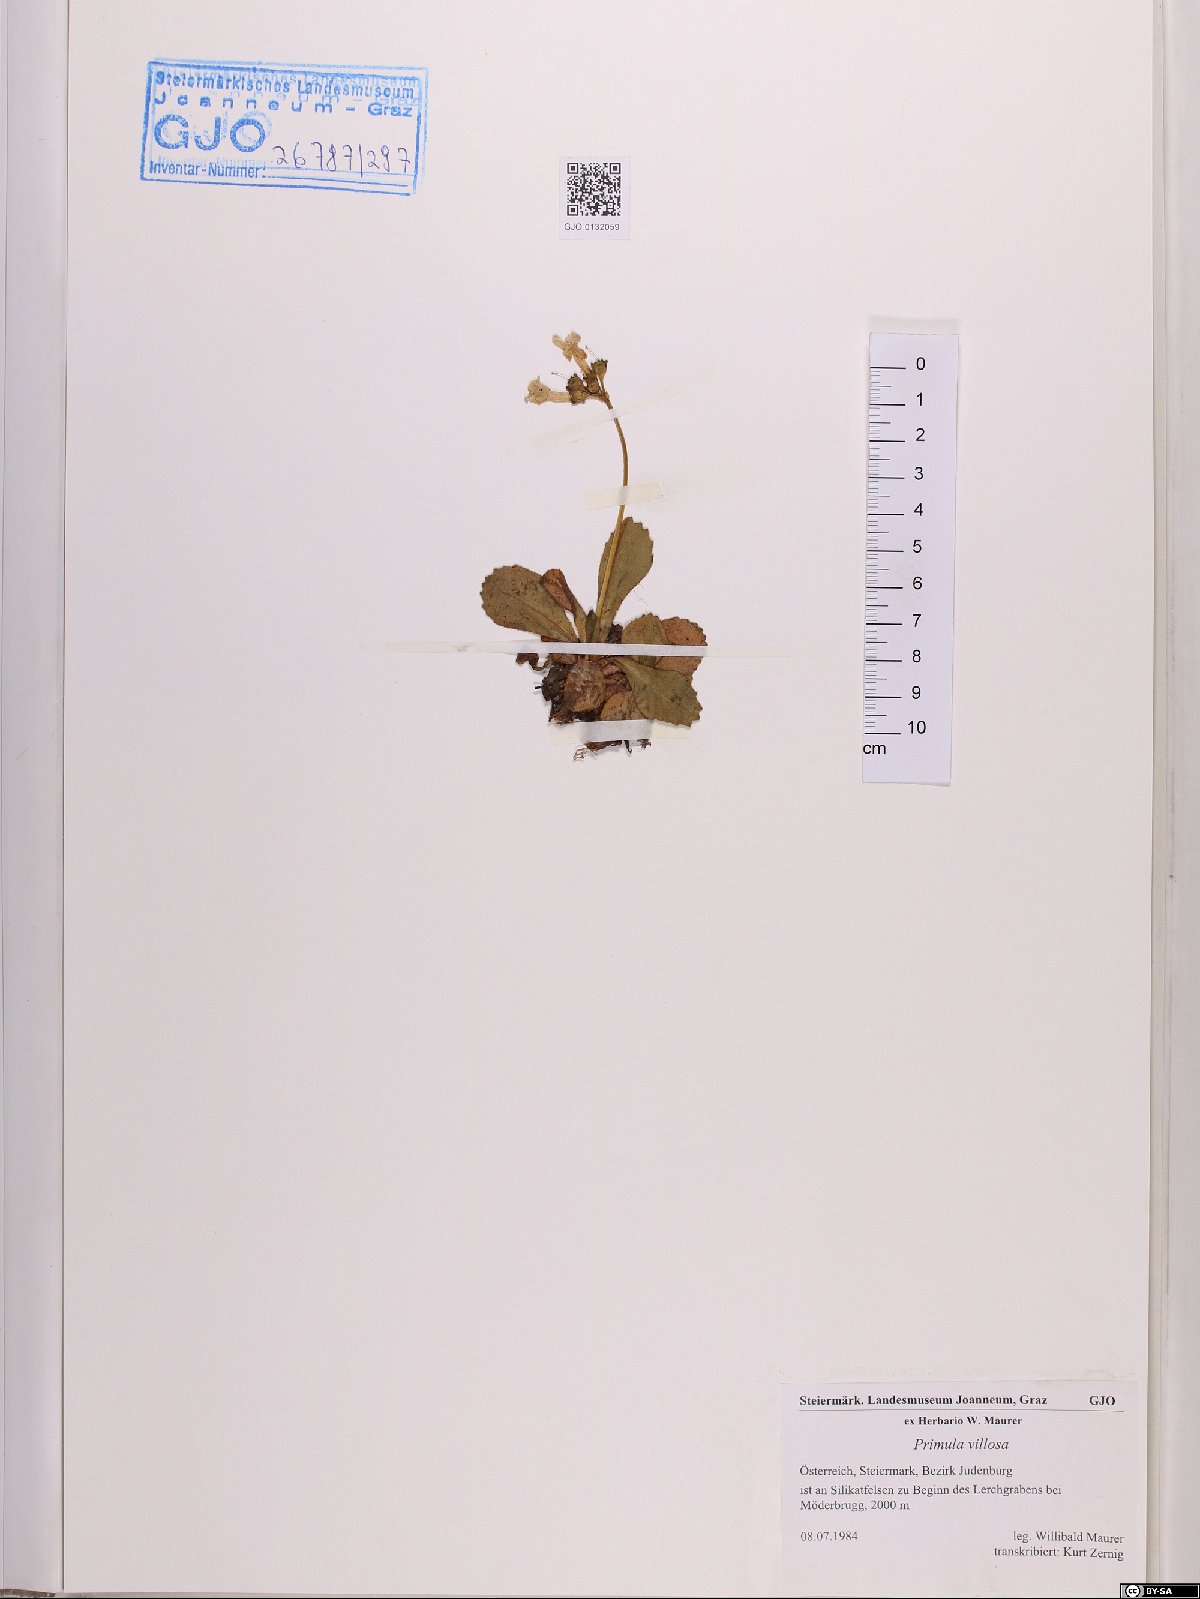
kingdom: Plantae
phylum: Tracheophyta
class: Magnoliopsida
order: Ericales
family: Primulaceae
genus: Primula
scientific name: Primula villosa
